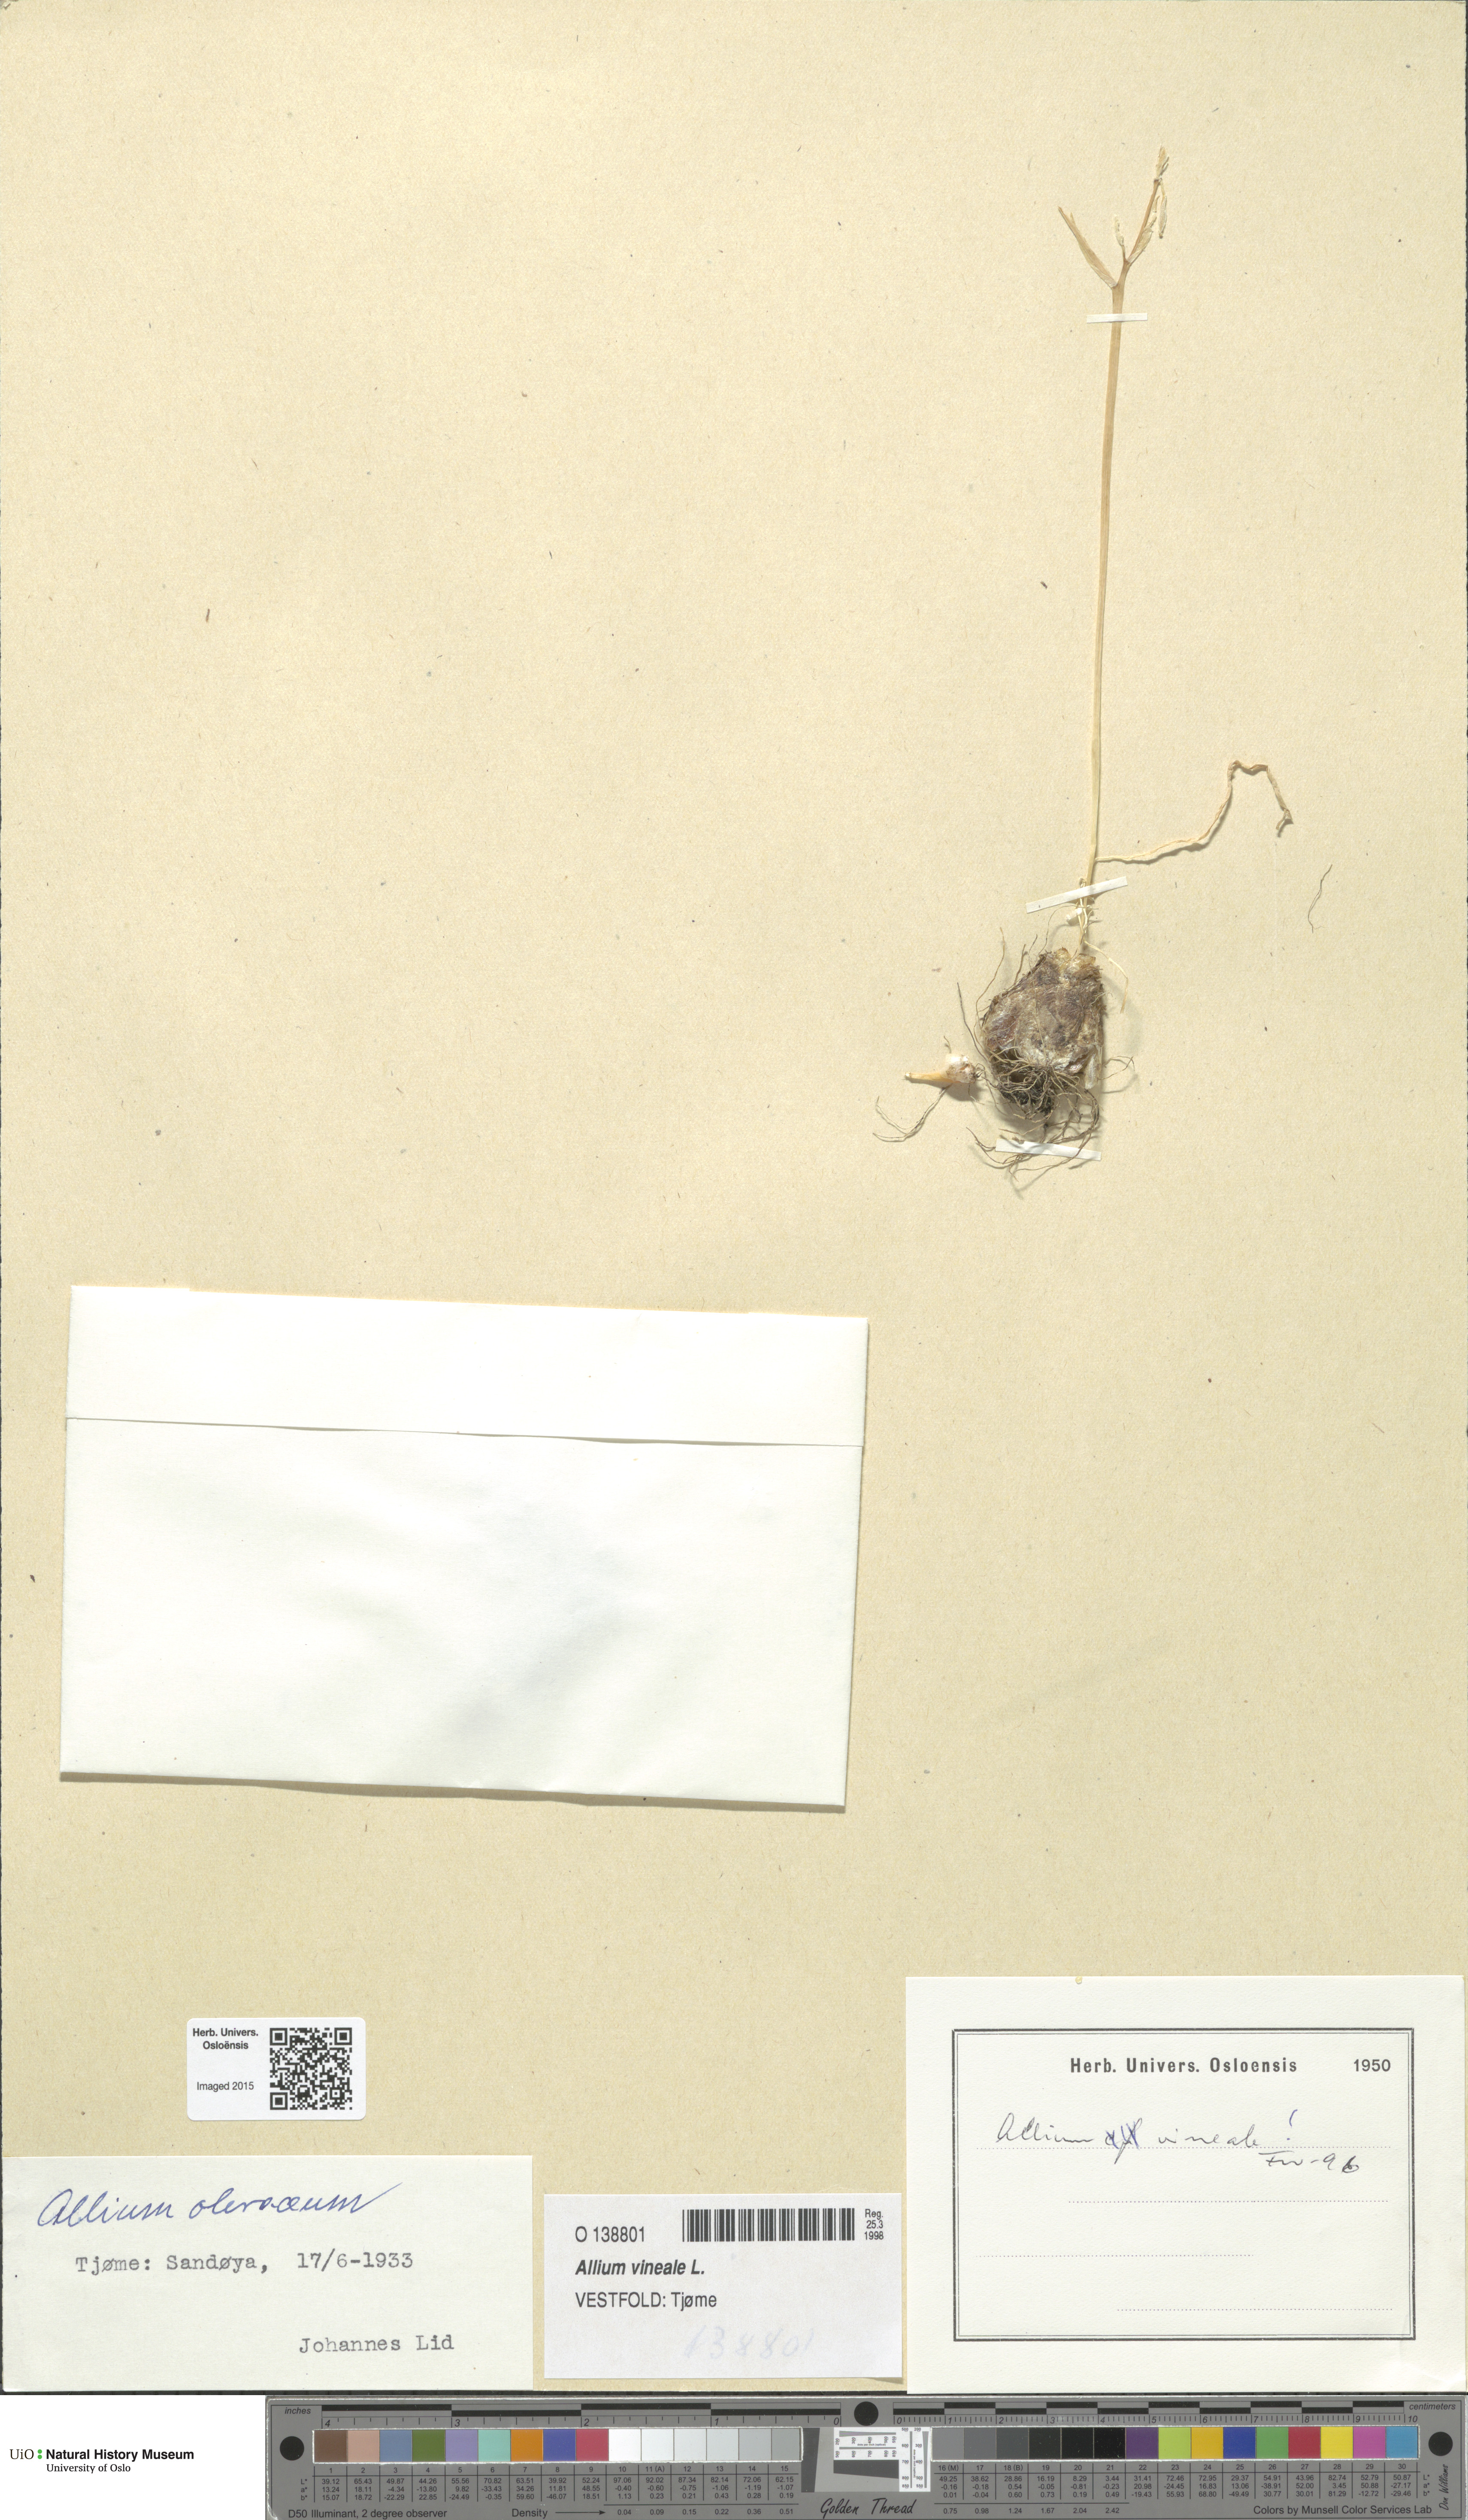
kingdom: Plantae
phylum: Tracheophyta
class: Liliopsida
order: Asparagales
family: Amaryllidaceae
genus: Allium
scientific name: Allium vineale
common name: Crow garlic
